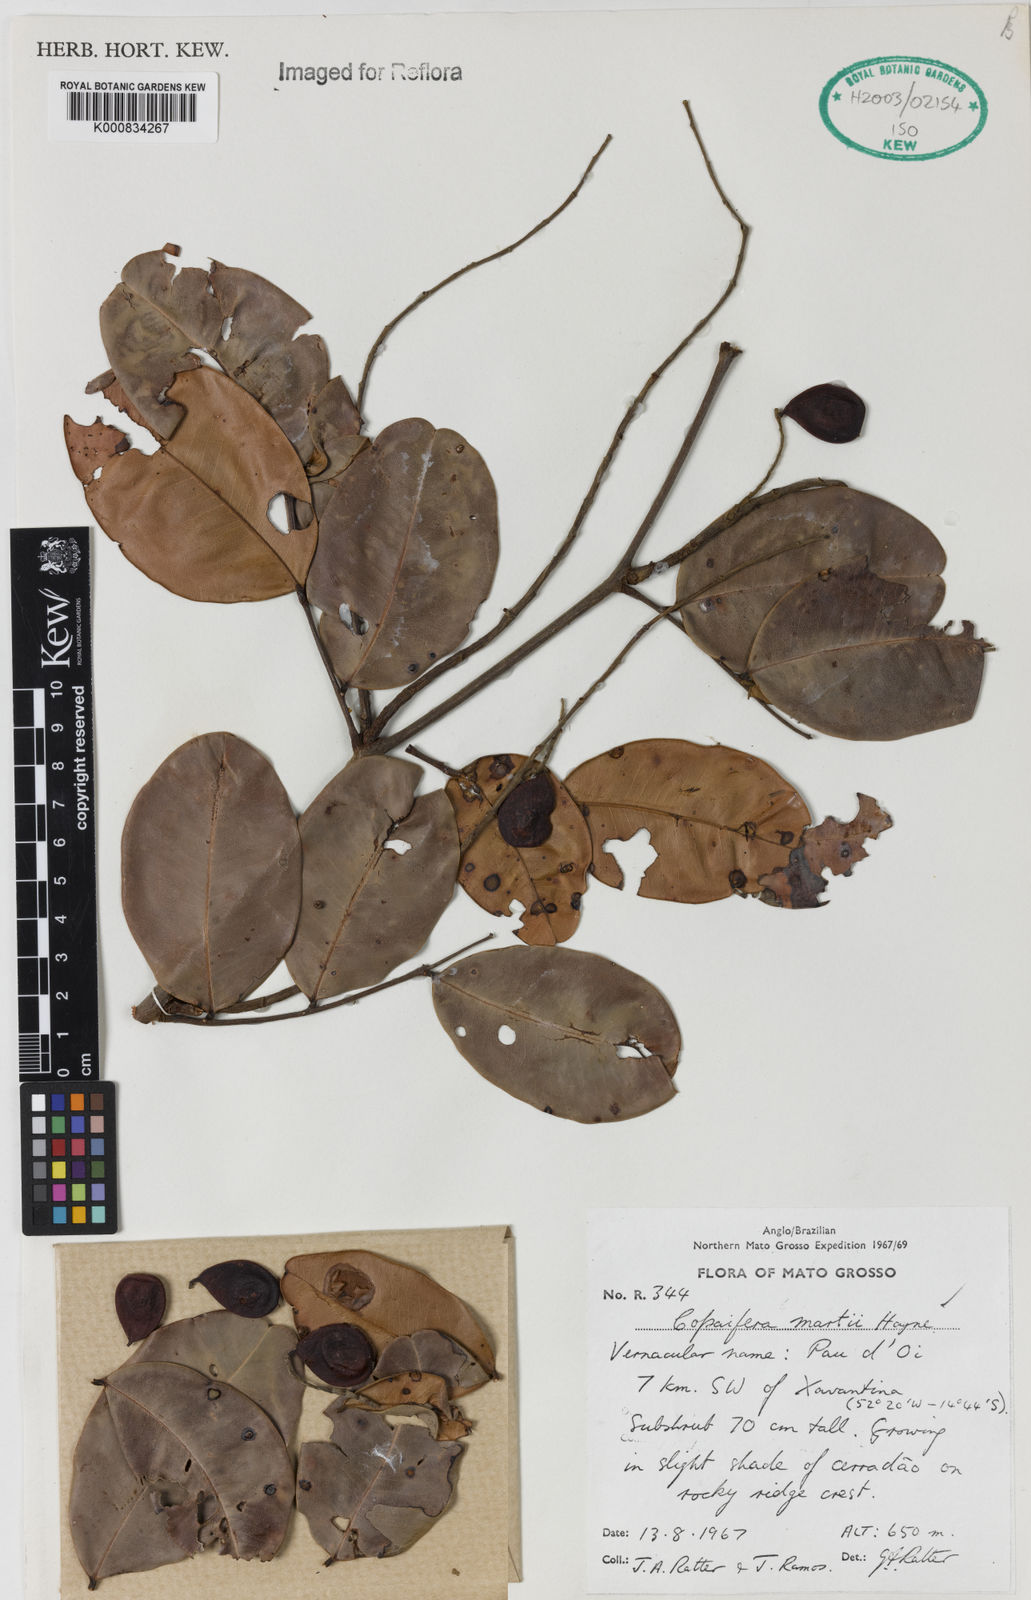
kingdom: Plantae
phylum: Tracheophyta
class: Magnoliopsida
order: Fabales
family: Fabaceae
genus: Copaifera
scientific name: Copaifera martii
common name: Copaiba
